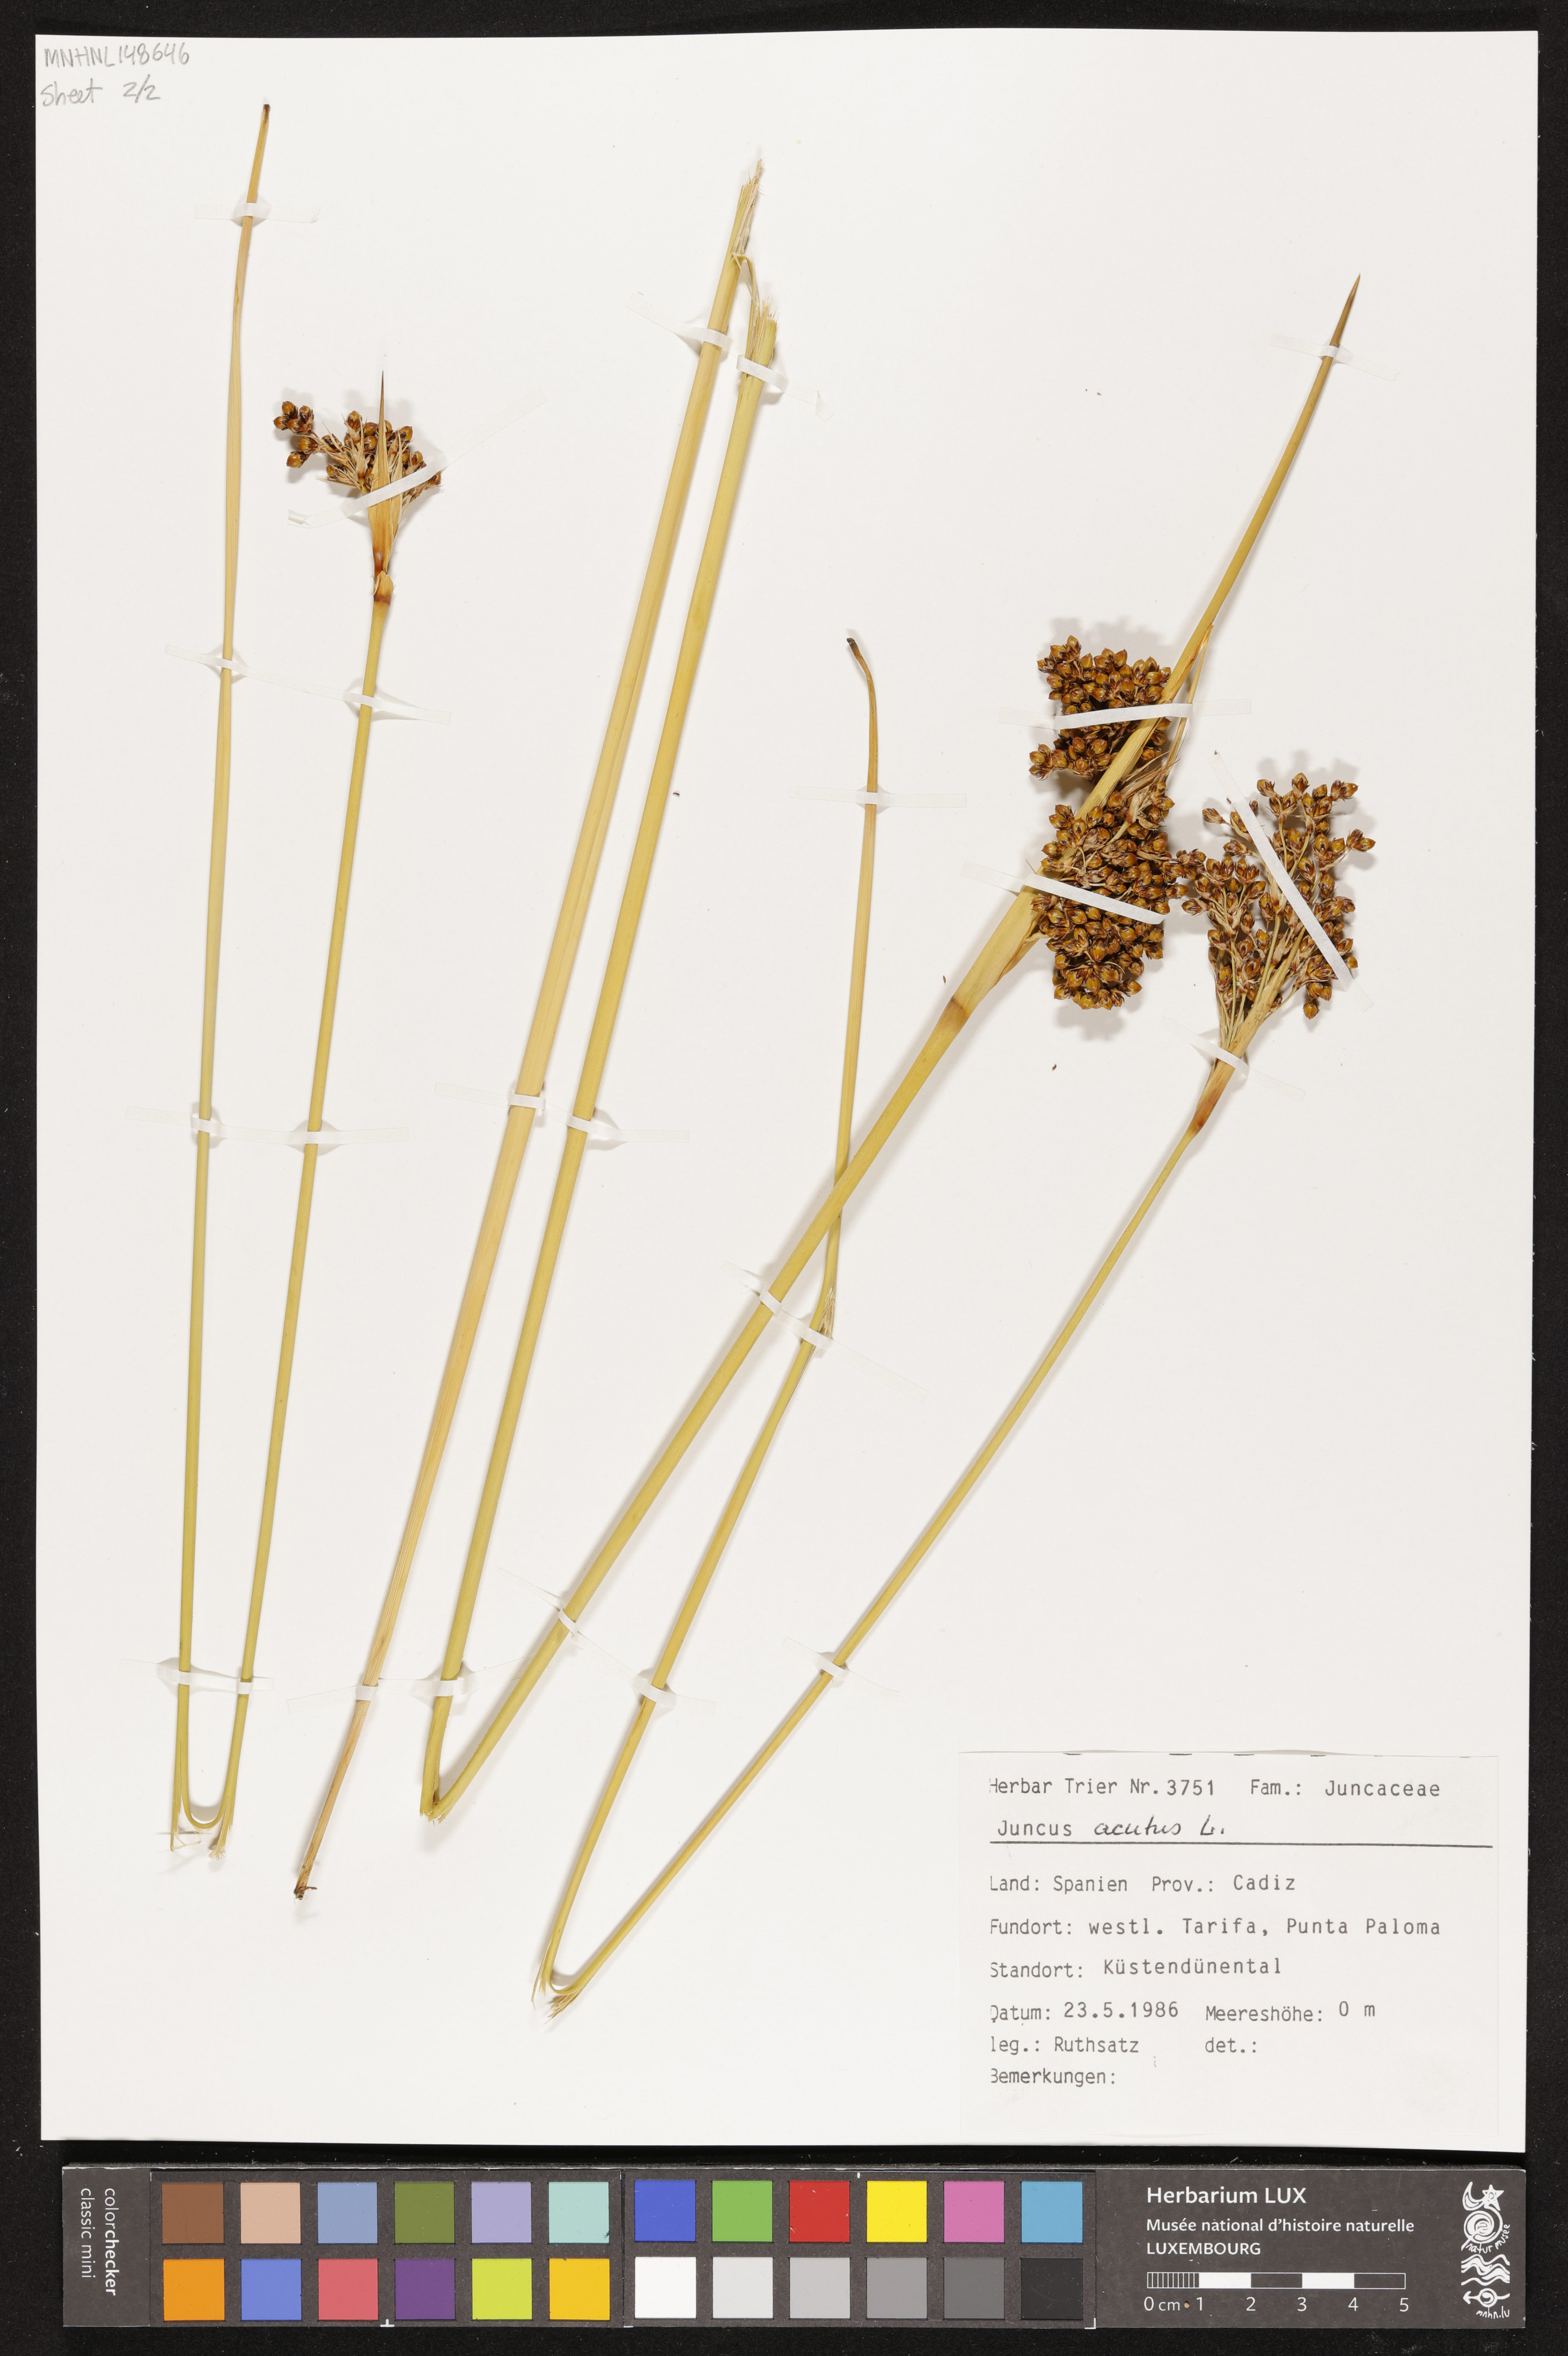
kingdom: Plantae
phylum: Tracheophyta
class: Liliopsida
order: Poales
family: Juncaceae
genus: Juncus
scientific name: Juncus acutus
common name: Sharp rush
